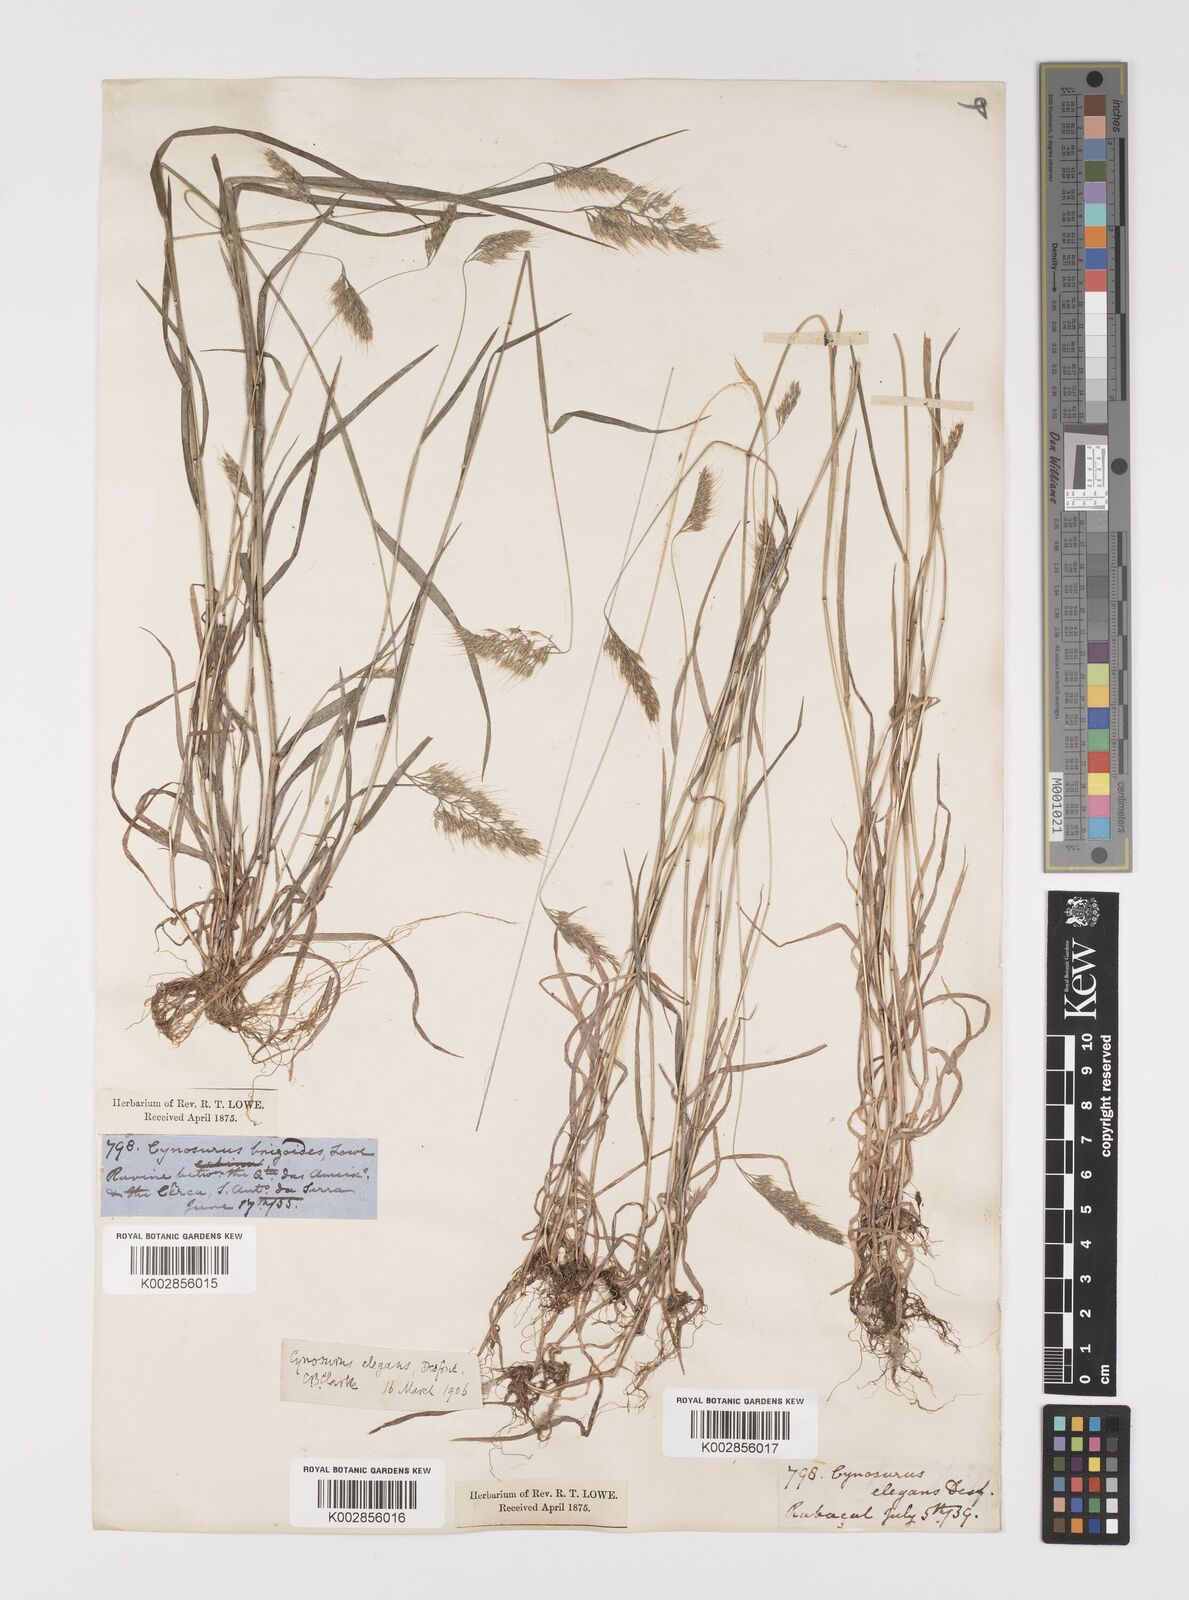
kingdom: Plantae
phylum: Tracheophyta
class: Liliopsida
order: Poales
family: Poaceae
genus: Cynosurus
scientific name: Cynosurus elegans
